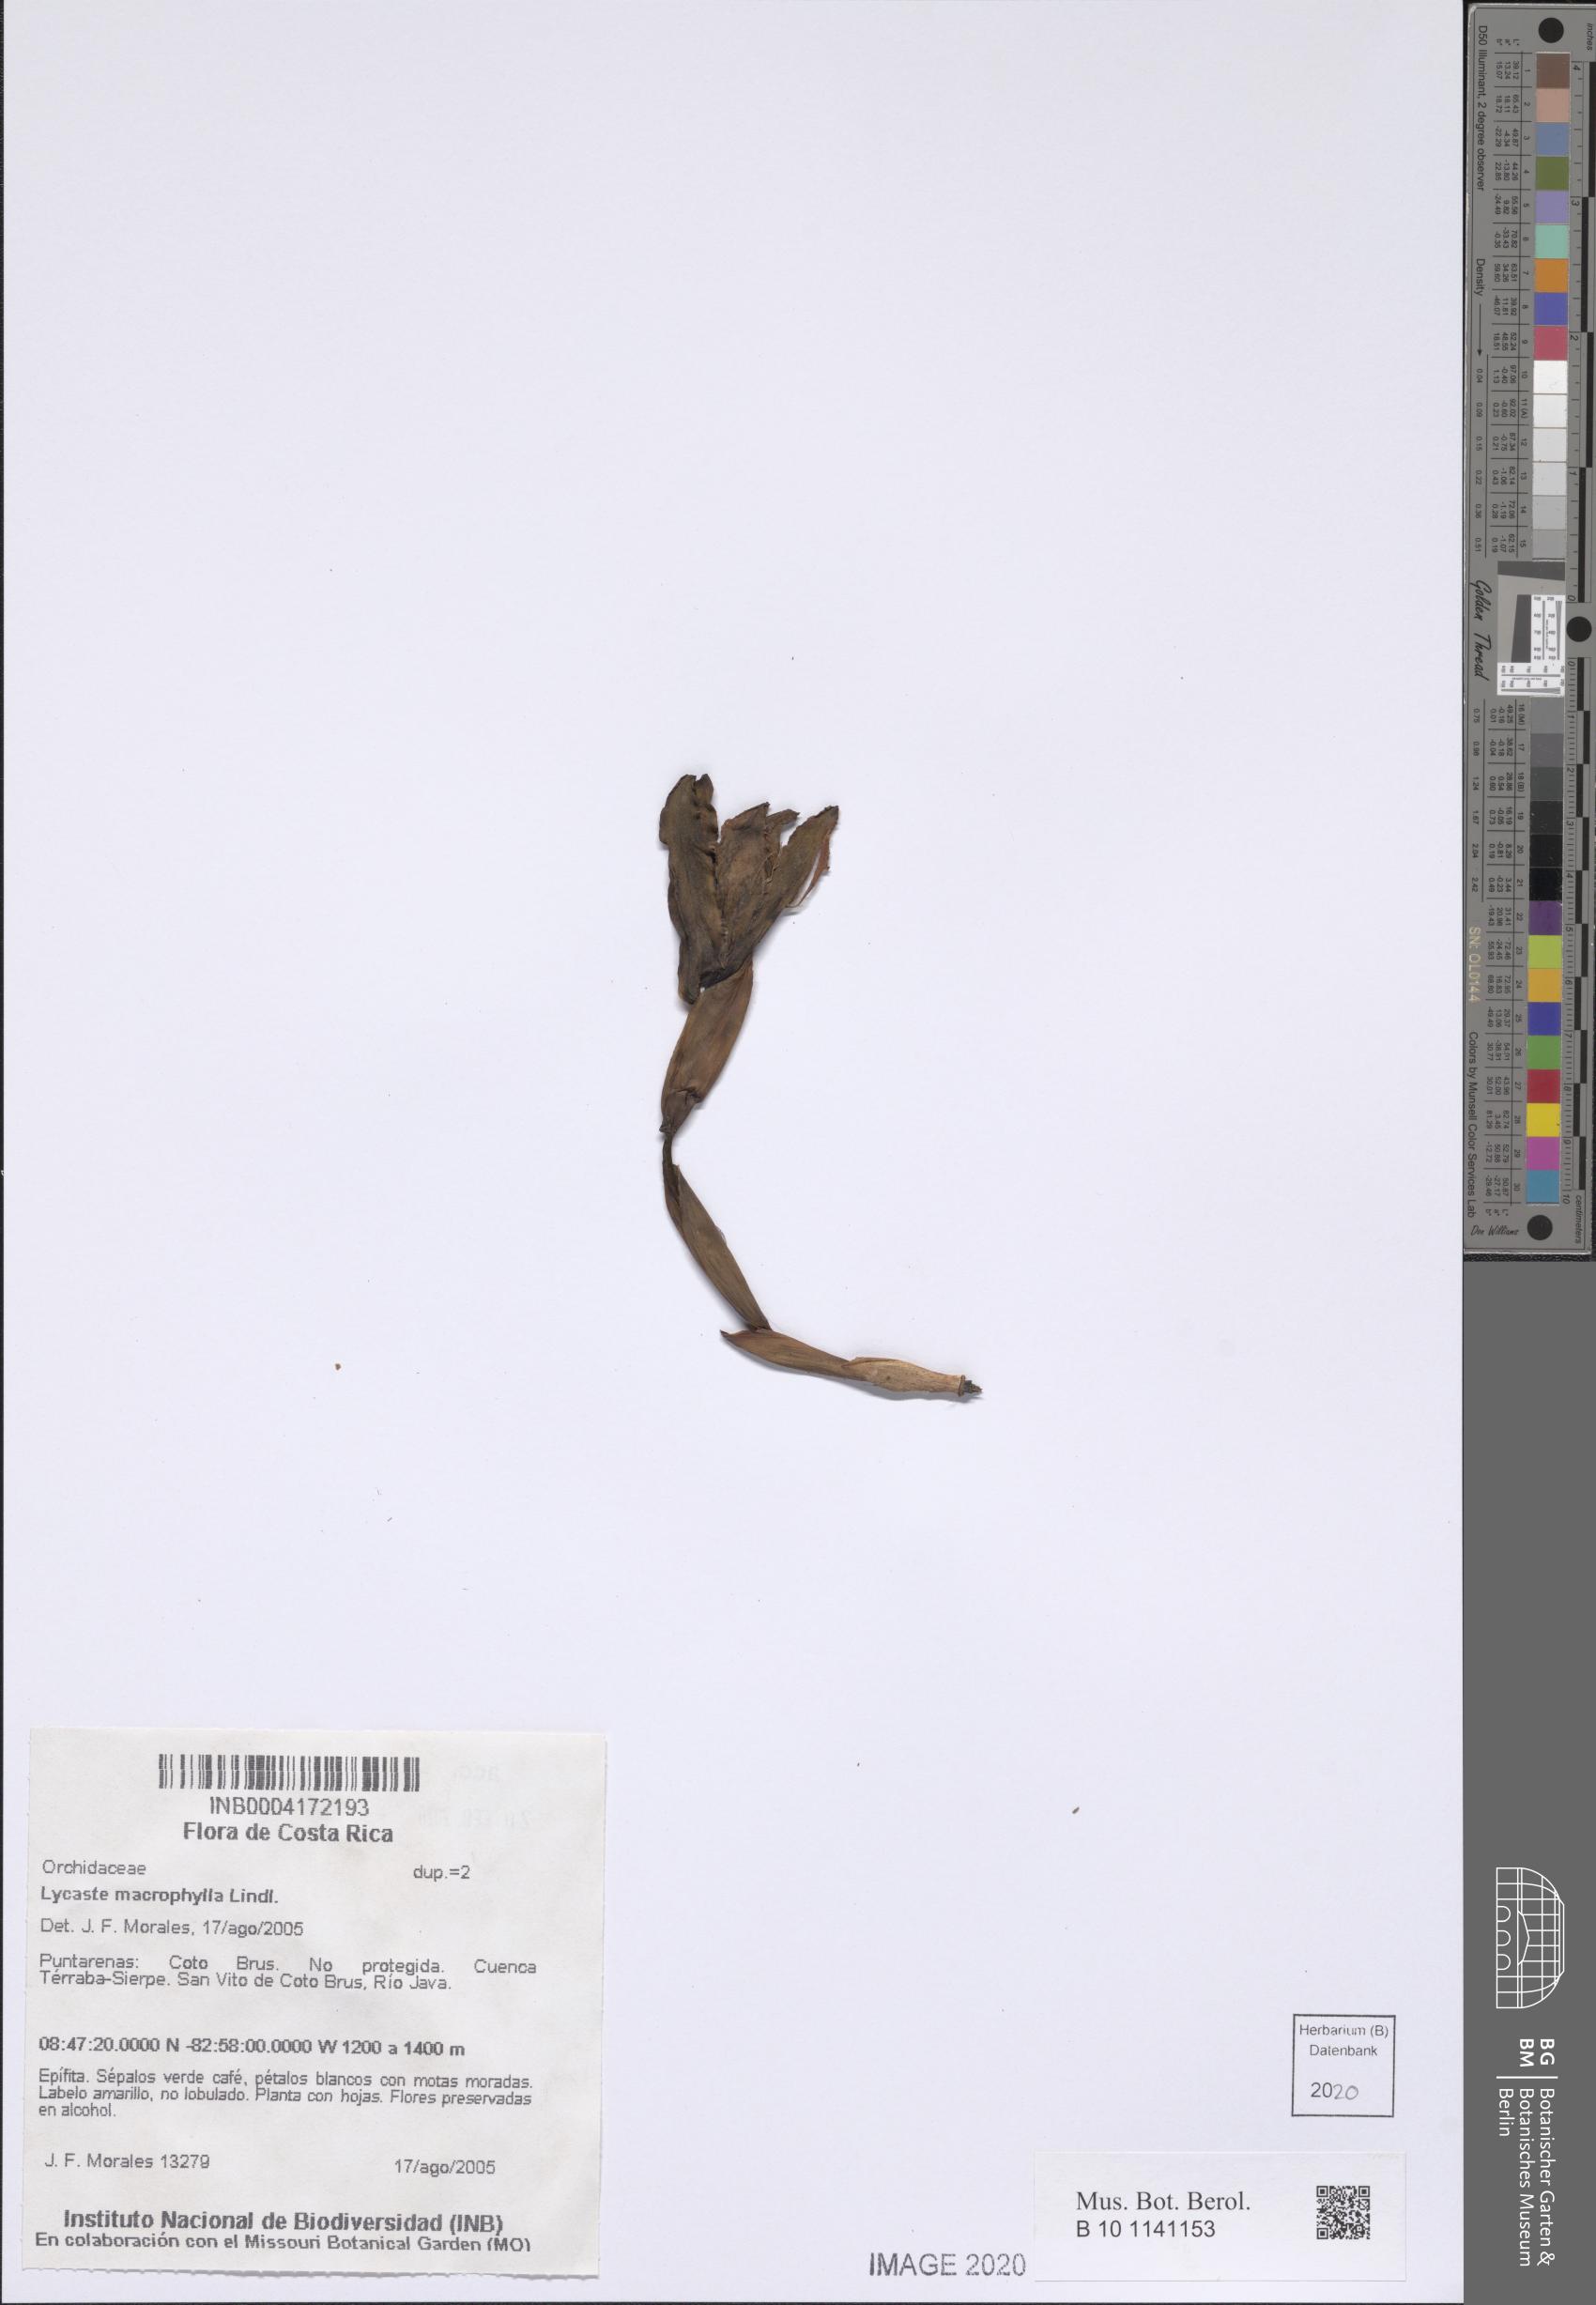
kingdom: Plantae
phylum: Tracheophyta
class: Liliopsida
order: Asparagales
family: Orchidaceae
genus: Lycaste
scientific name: Lycaste macrophylla
